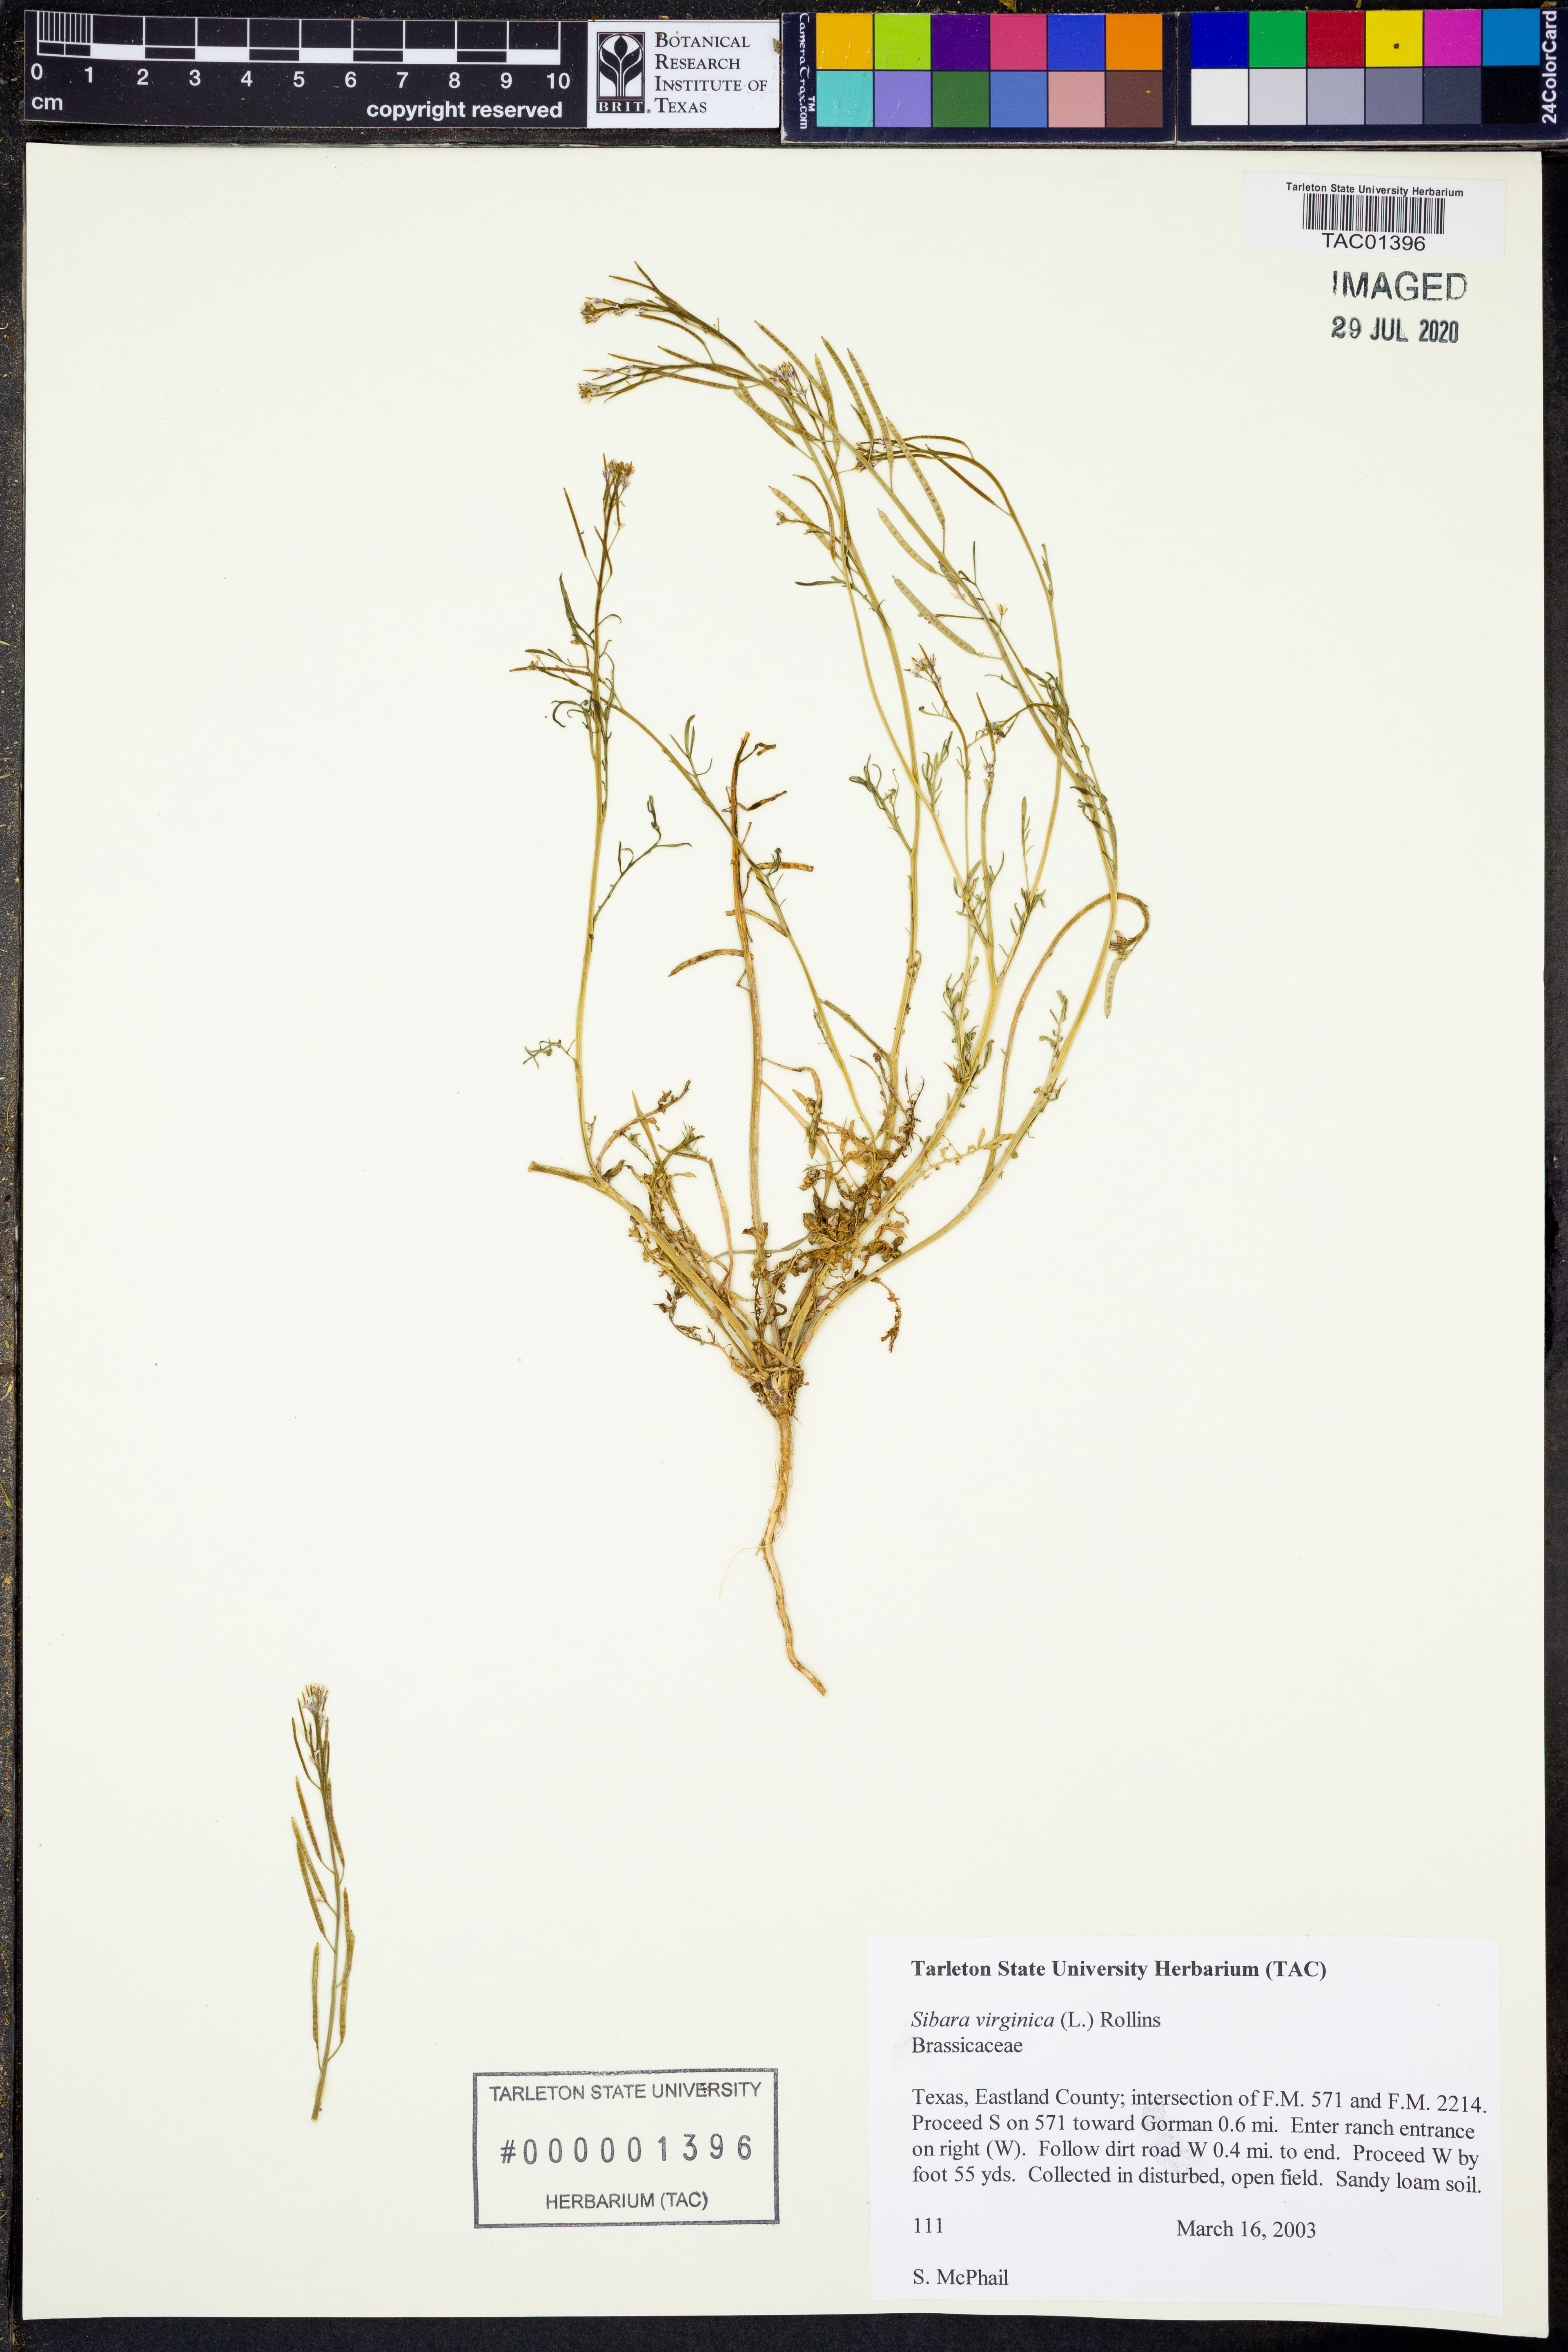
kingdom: Plantae
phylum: Tracheophyta
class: Magnoliopsida
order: Brassicales
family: Brassicaceae
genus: Planodes
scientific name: Planodes virginicum
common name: Virginia cress
